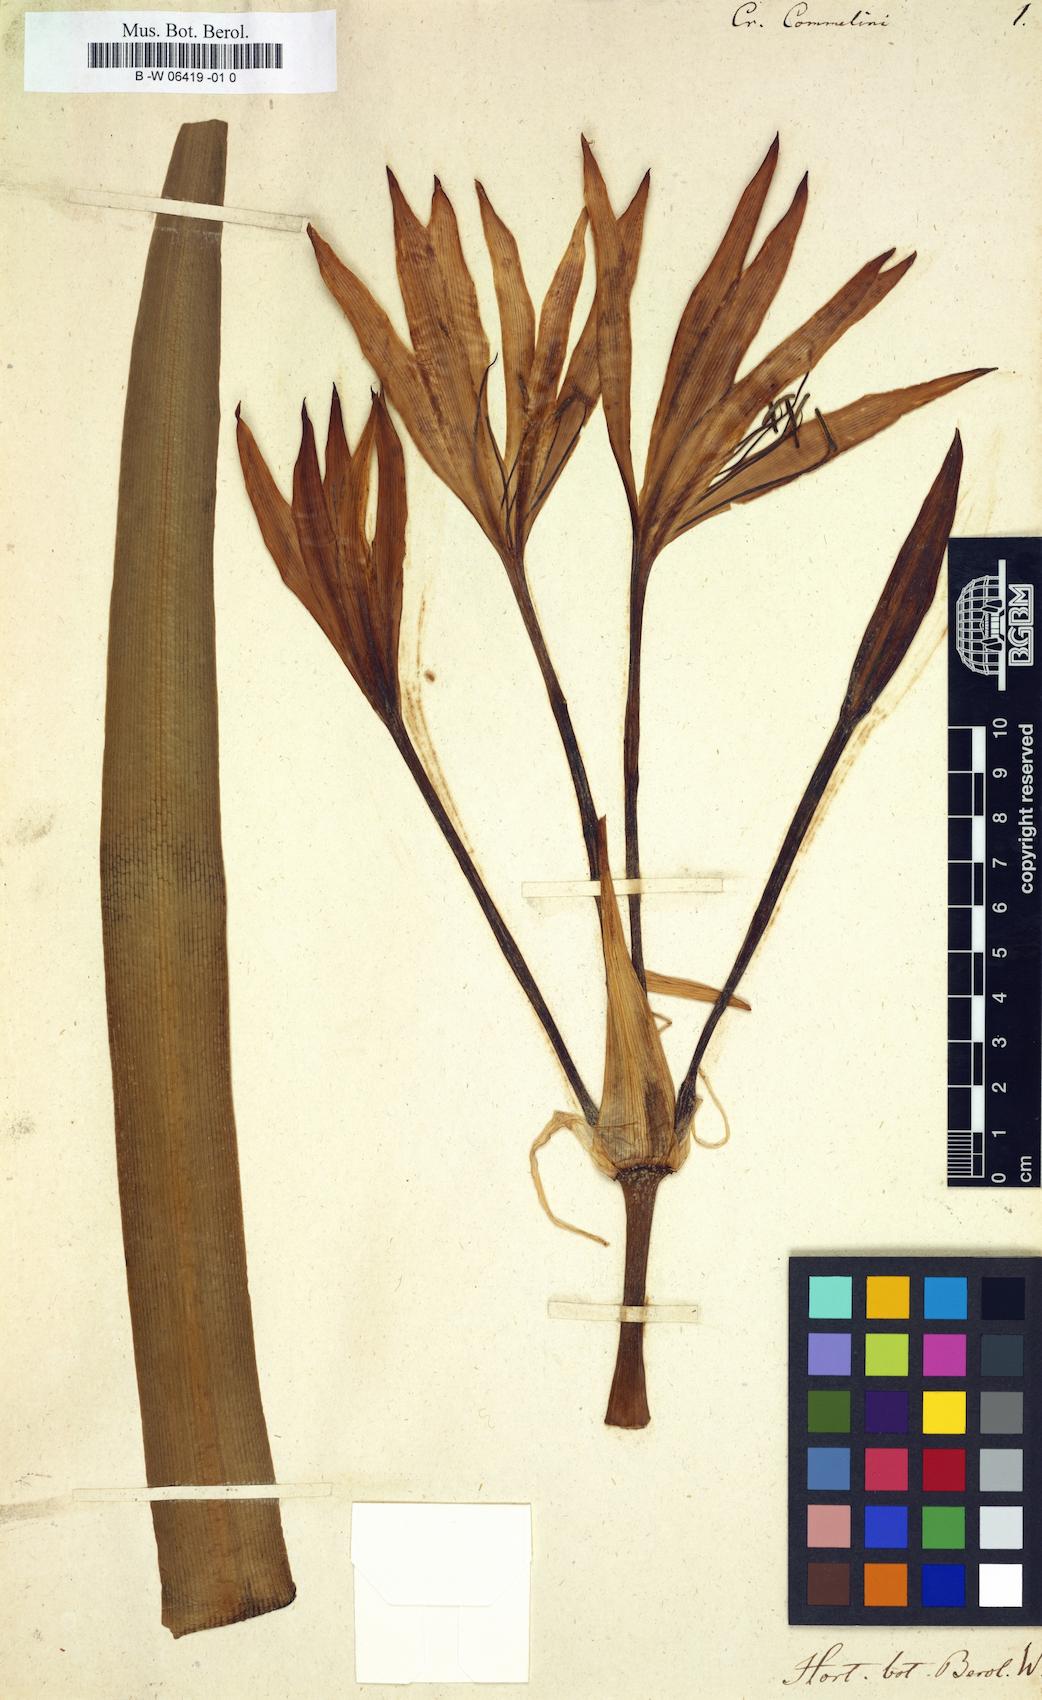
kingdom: Plantae
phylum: Tracheophyta
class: Liliopsida
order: Asparagales
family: Amaryllidaceae
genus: Crinum
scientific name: Crinum commelyni
